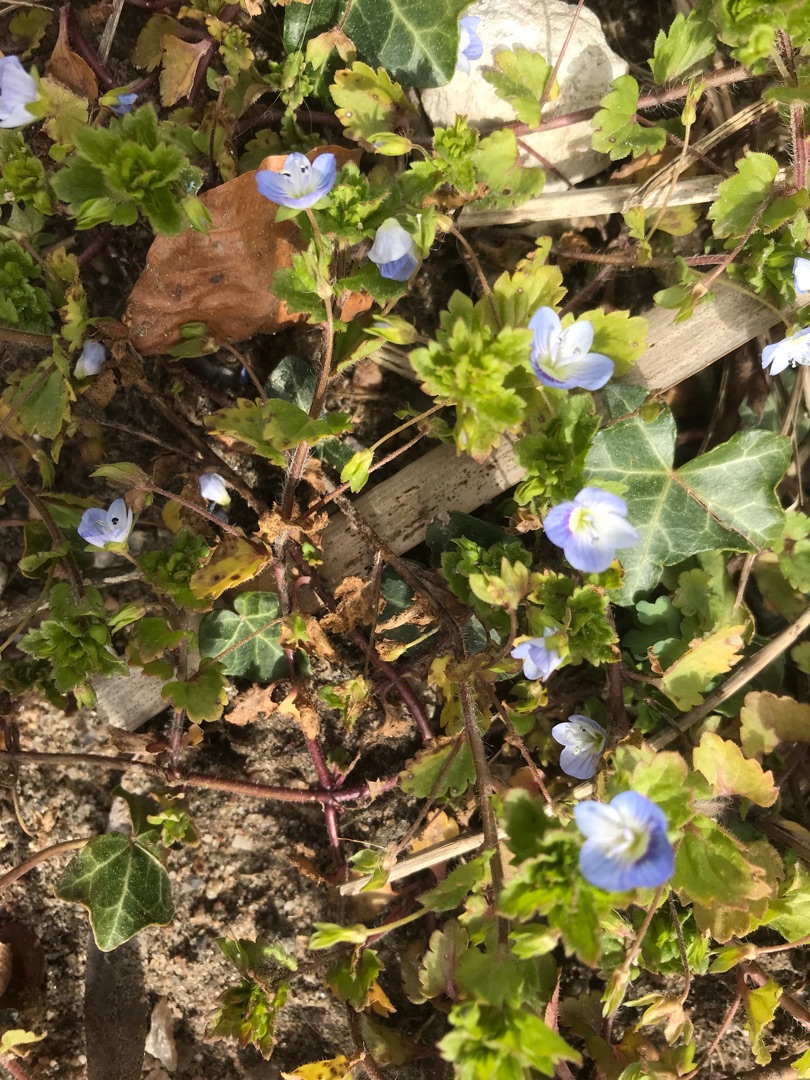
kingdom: Plantae
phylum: Tracheophyta
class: Magnoliopsida
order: Lamiales
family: Plantaginaceae
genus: Veronica
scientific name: Veronica persica
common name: Storkronet ærenpris
